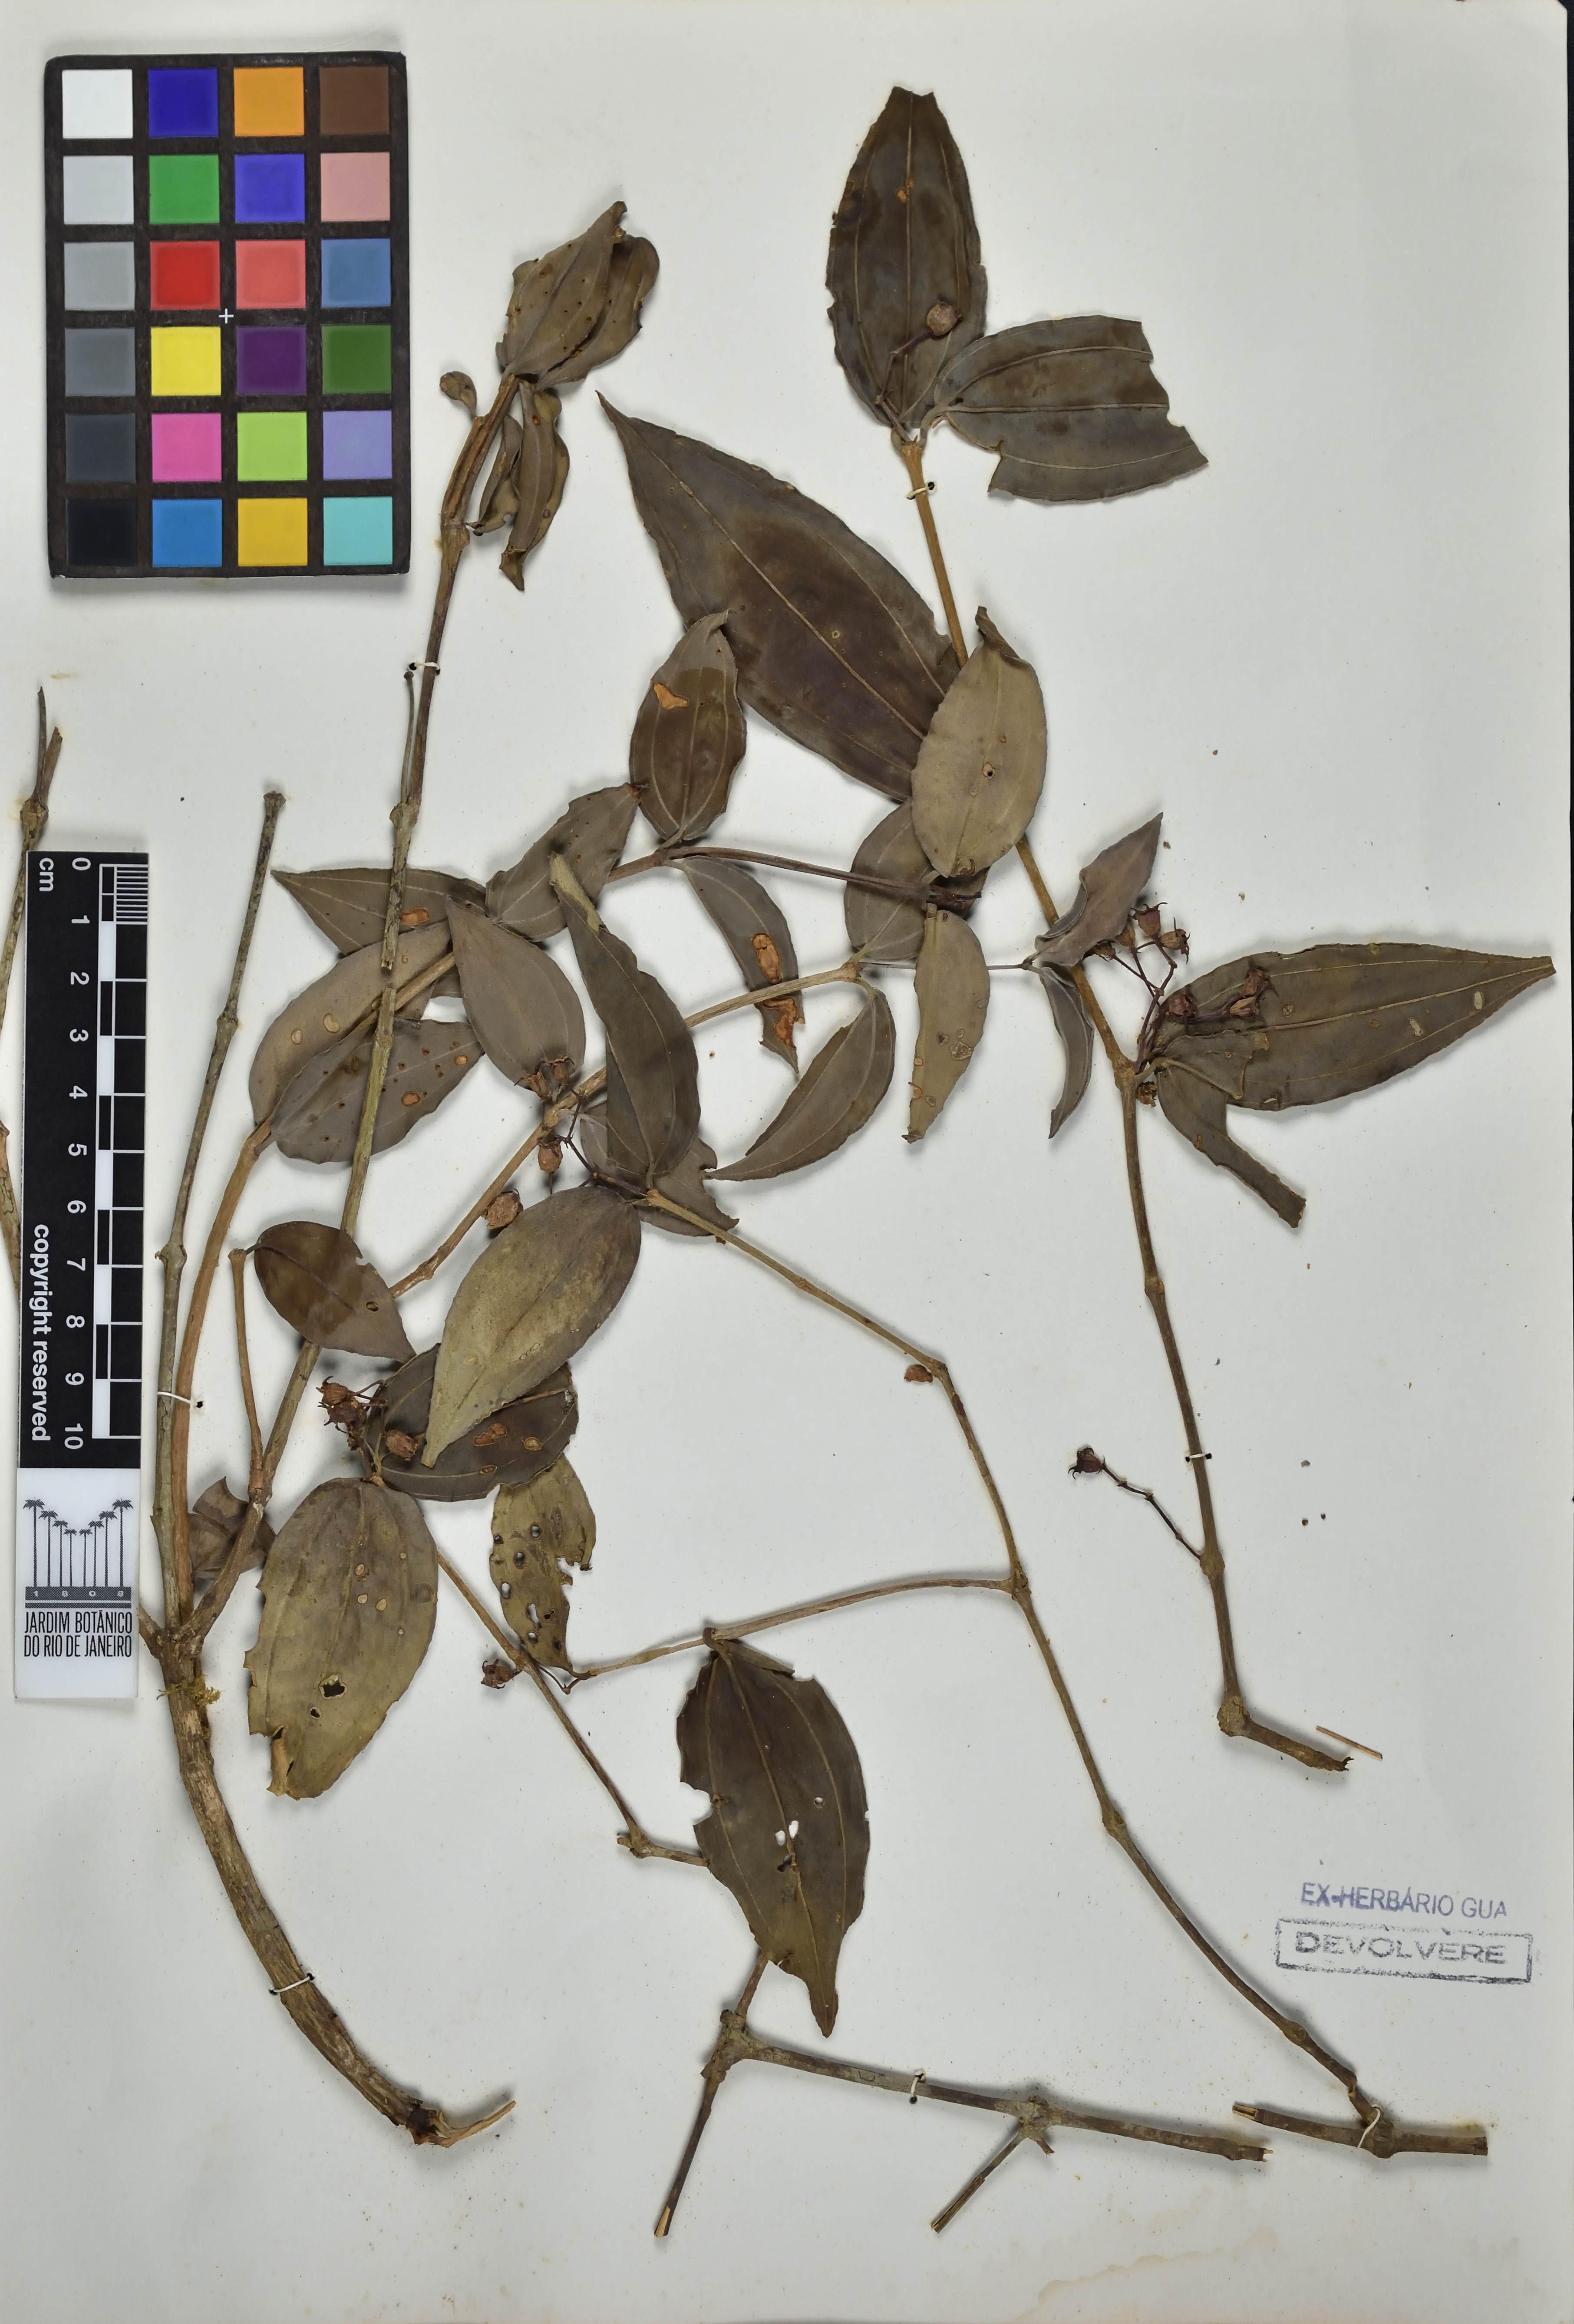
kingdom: Plantae
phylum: Tracheophyta
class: Magnoliopsida
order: Myrtales
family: Melastomataceae
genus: Miconia
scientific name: Miconia ebracteata
